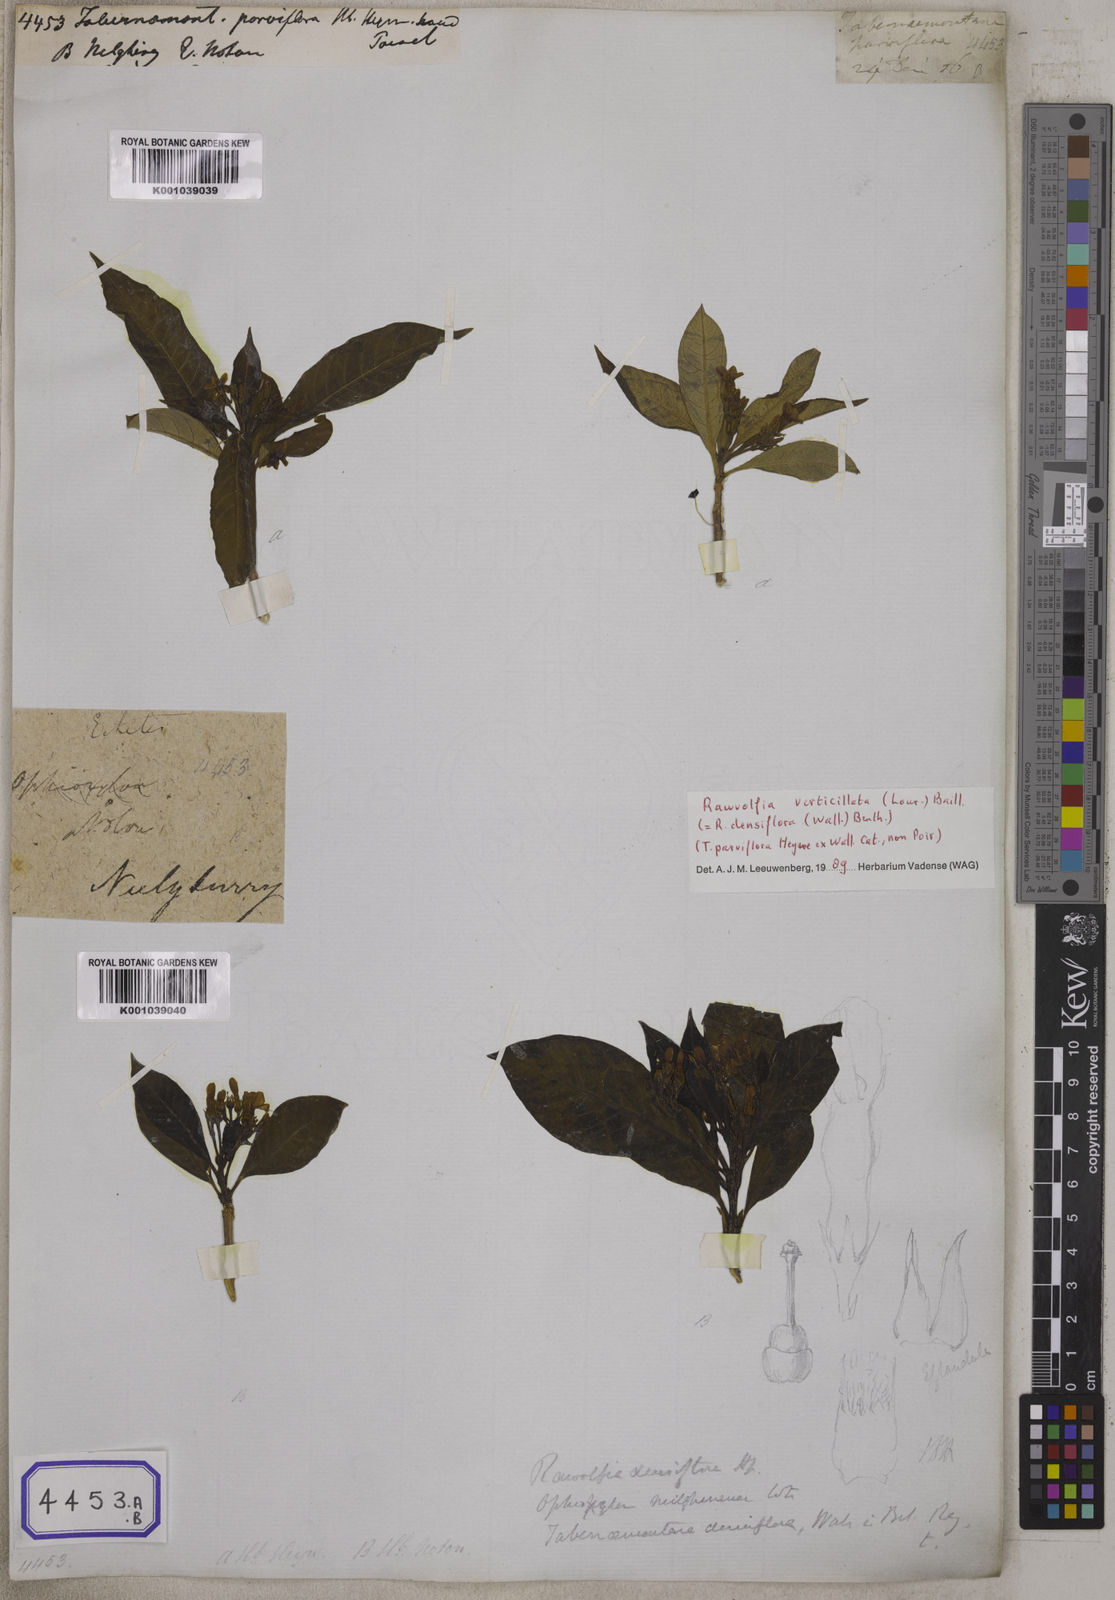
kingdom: Plantae
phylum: Tracheophyta
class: Magnoliopsida
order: Gentianales
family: Apocynaceae
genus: Tabernaemontana
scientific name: Tabernaemontana
